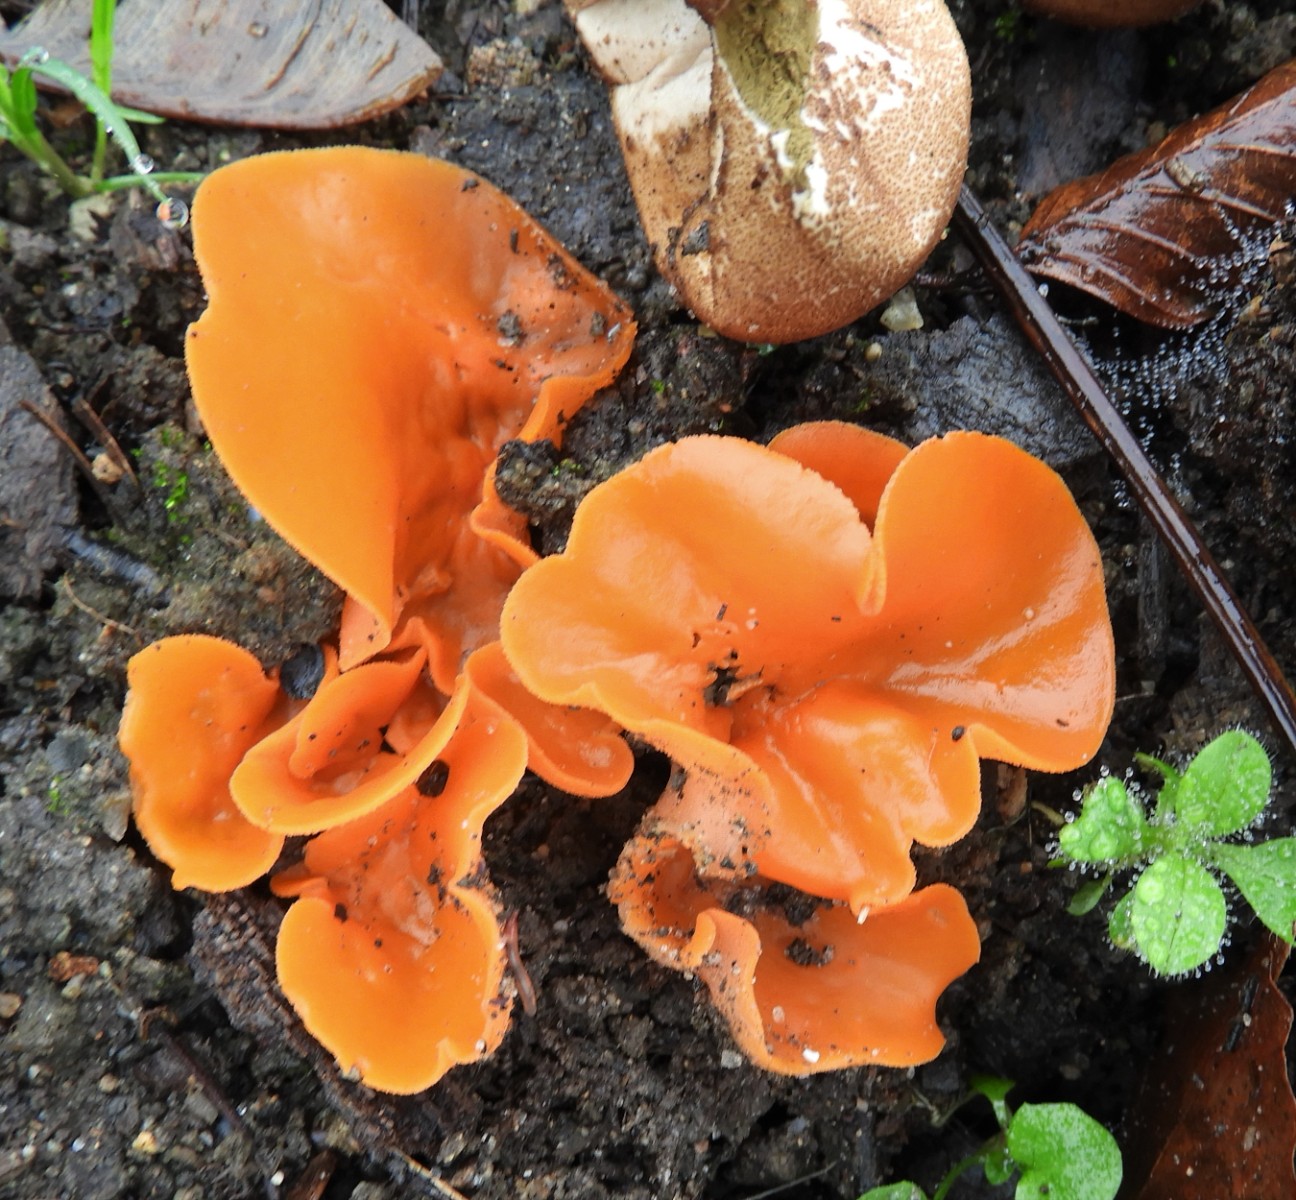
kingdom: Fungi
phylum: Ascomycota
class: Pezizomycetes
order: Pezizales
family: Pyronemataceae
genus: Aleuria
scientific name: Aleuria aurantia
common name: almindelig orangebæger
